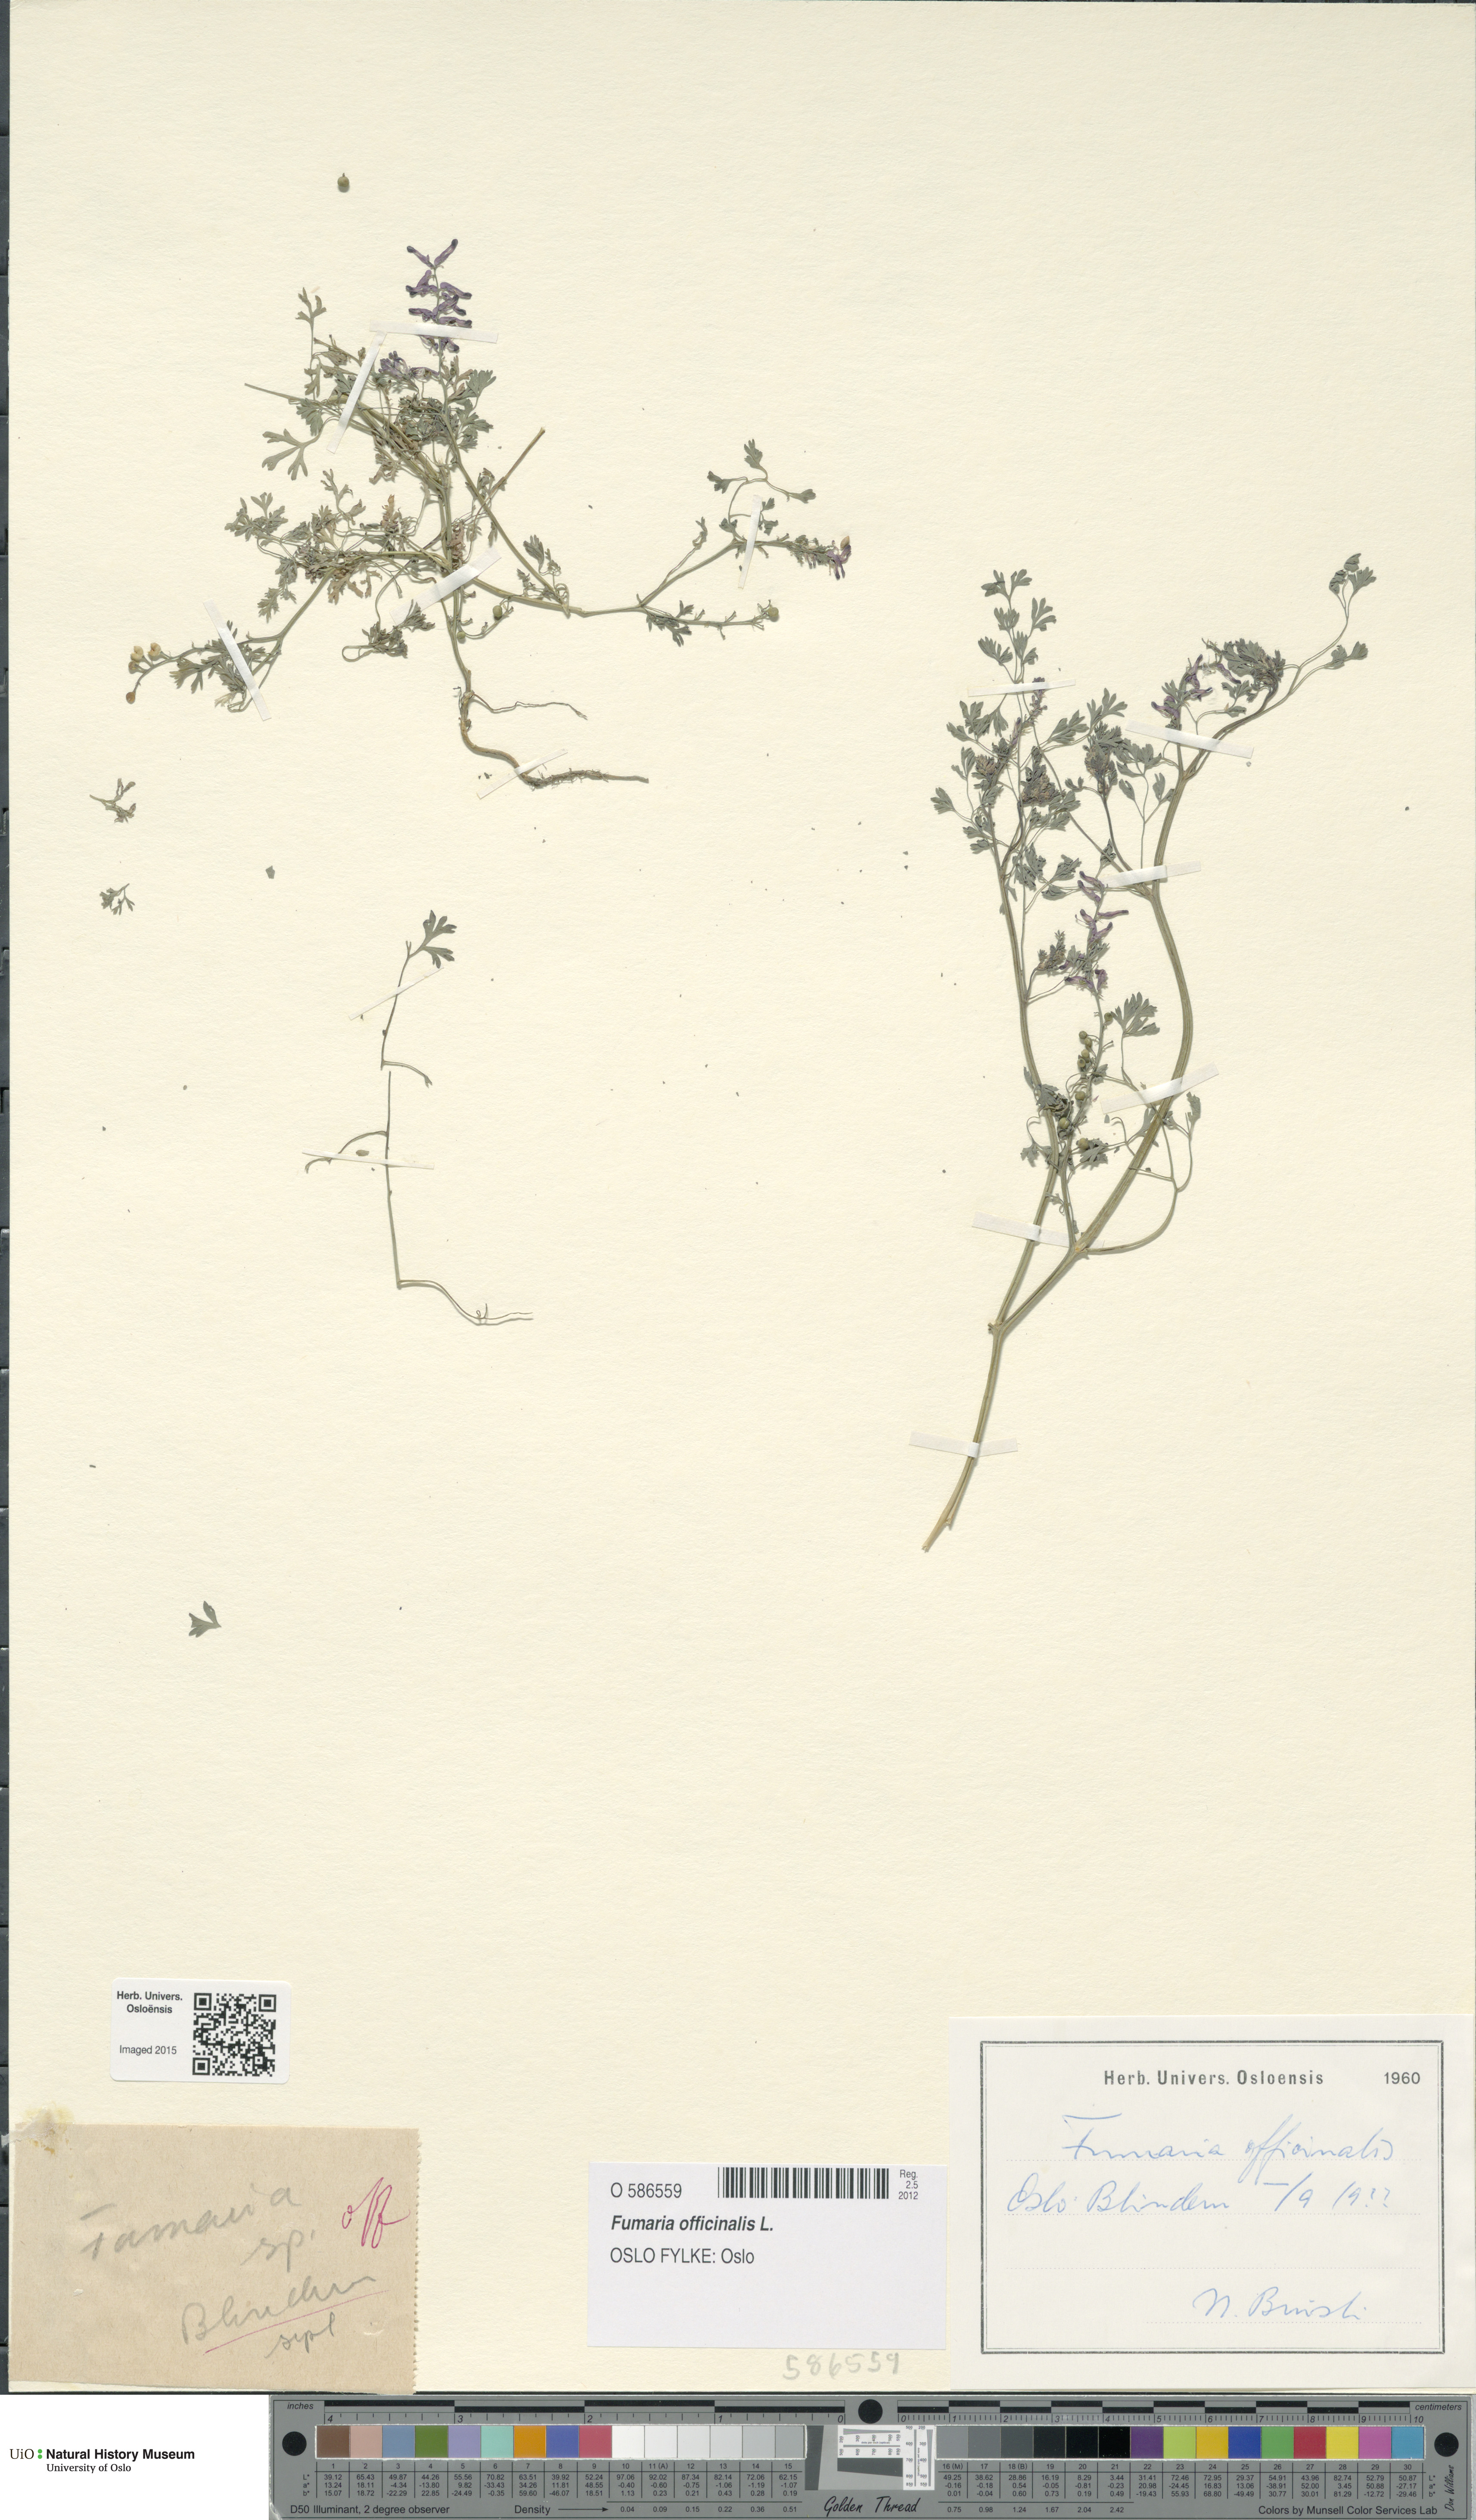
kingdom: Plantae
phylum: Tracheophyta
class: Magnoliopsida
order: Ranunculales
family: Papaveraceae
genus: Fumaria
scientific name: Fumaria officinalis
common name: Common fumitory
